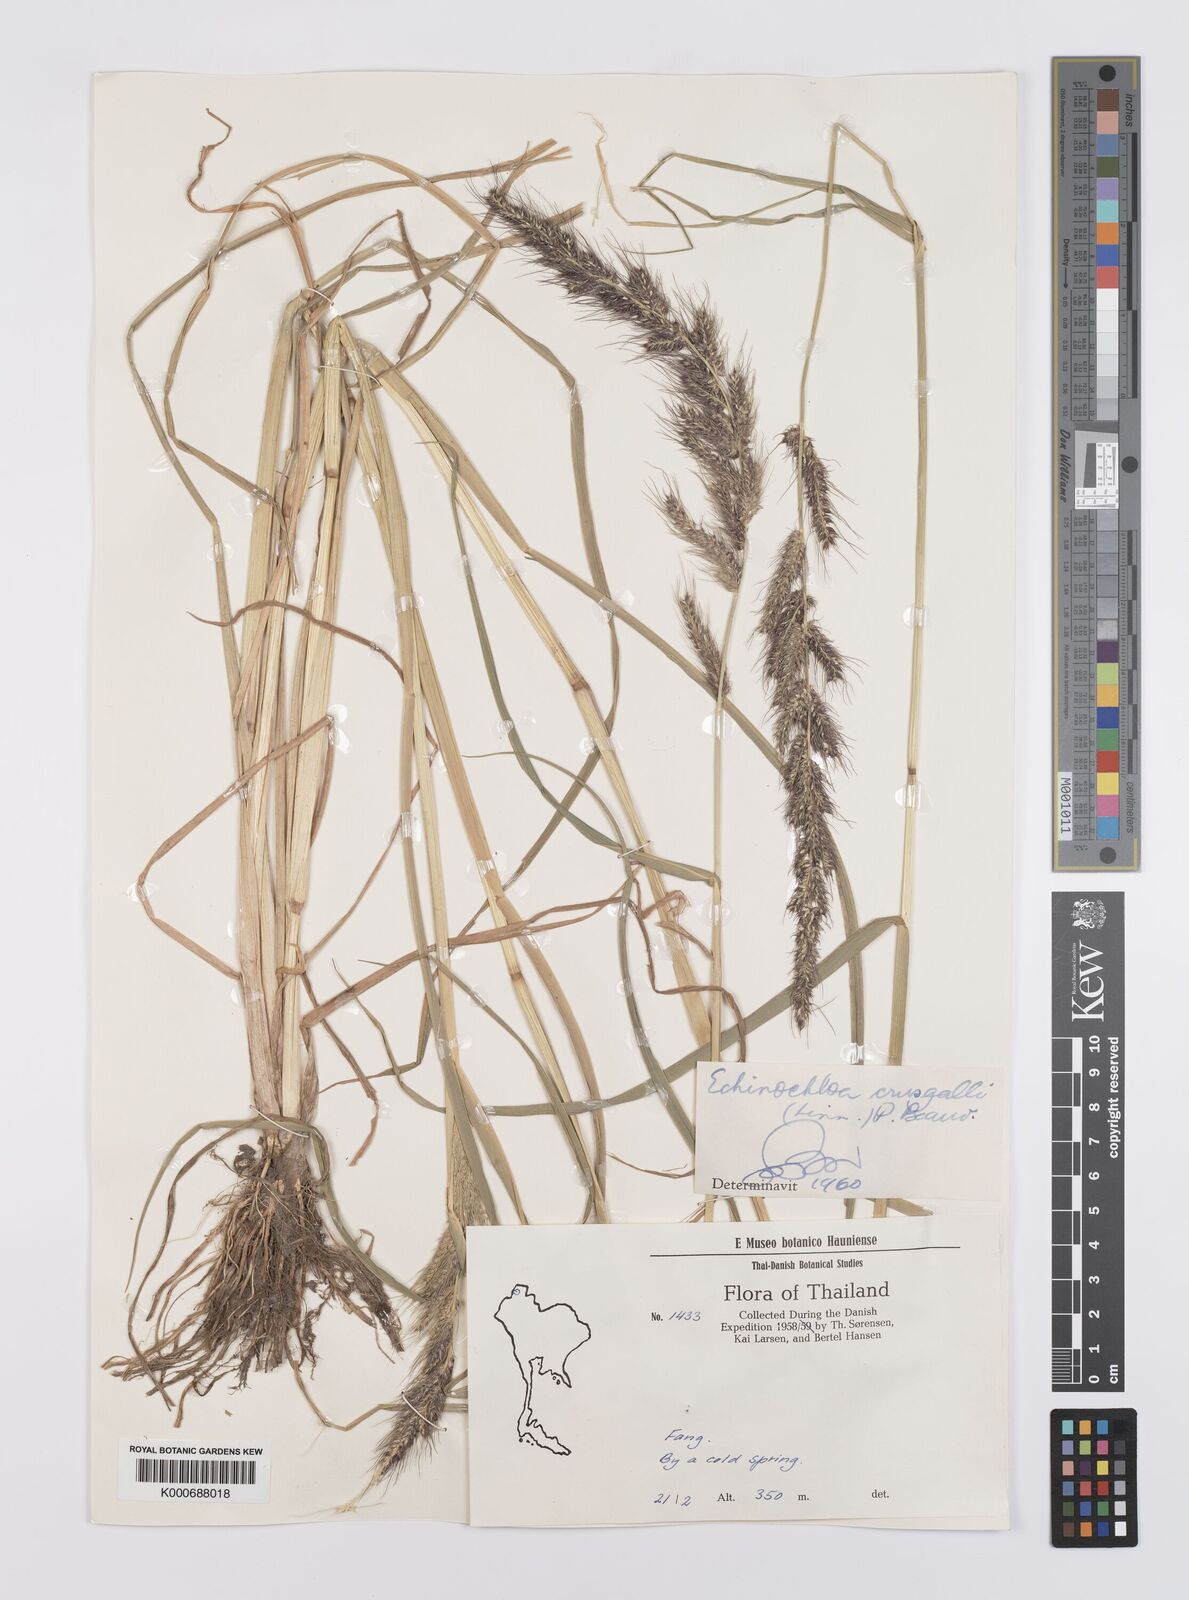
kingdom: Plantae
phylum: Tracheophyta
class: Liliopsida
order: Poales
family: Poaceae
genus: Echinochloa
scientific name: Echinochloa crus-galli
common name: Cockspur
